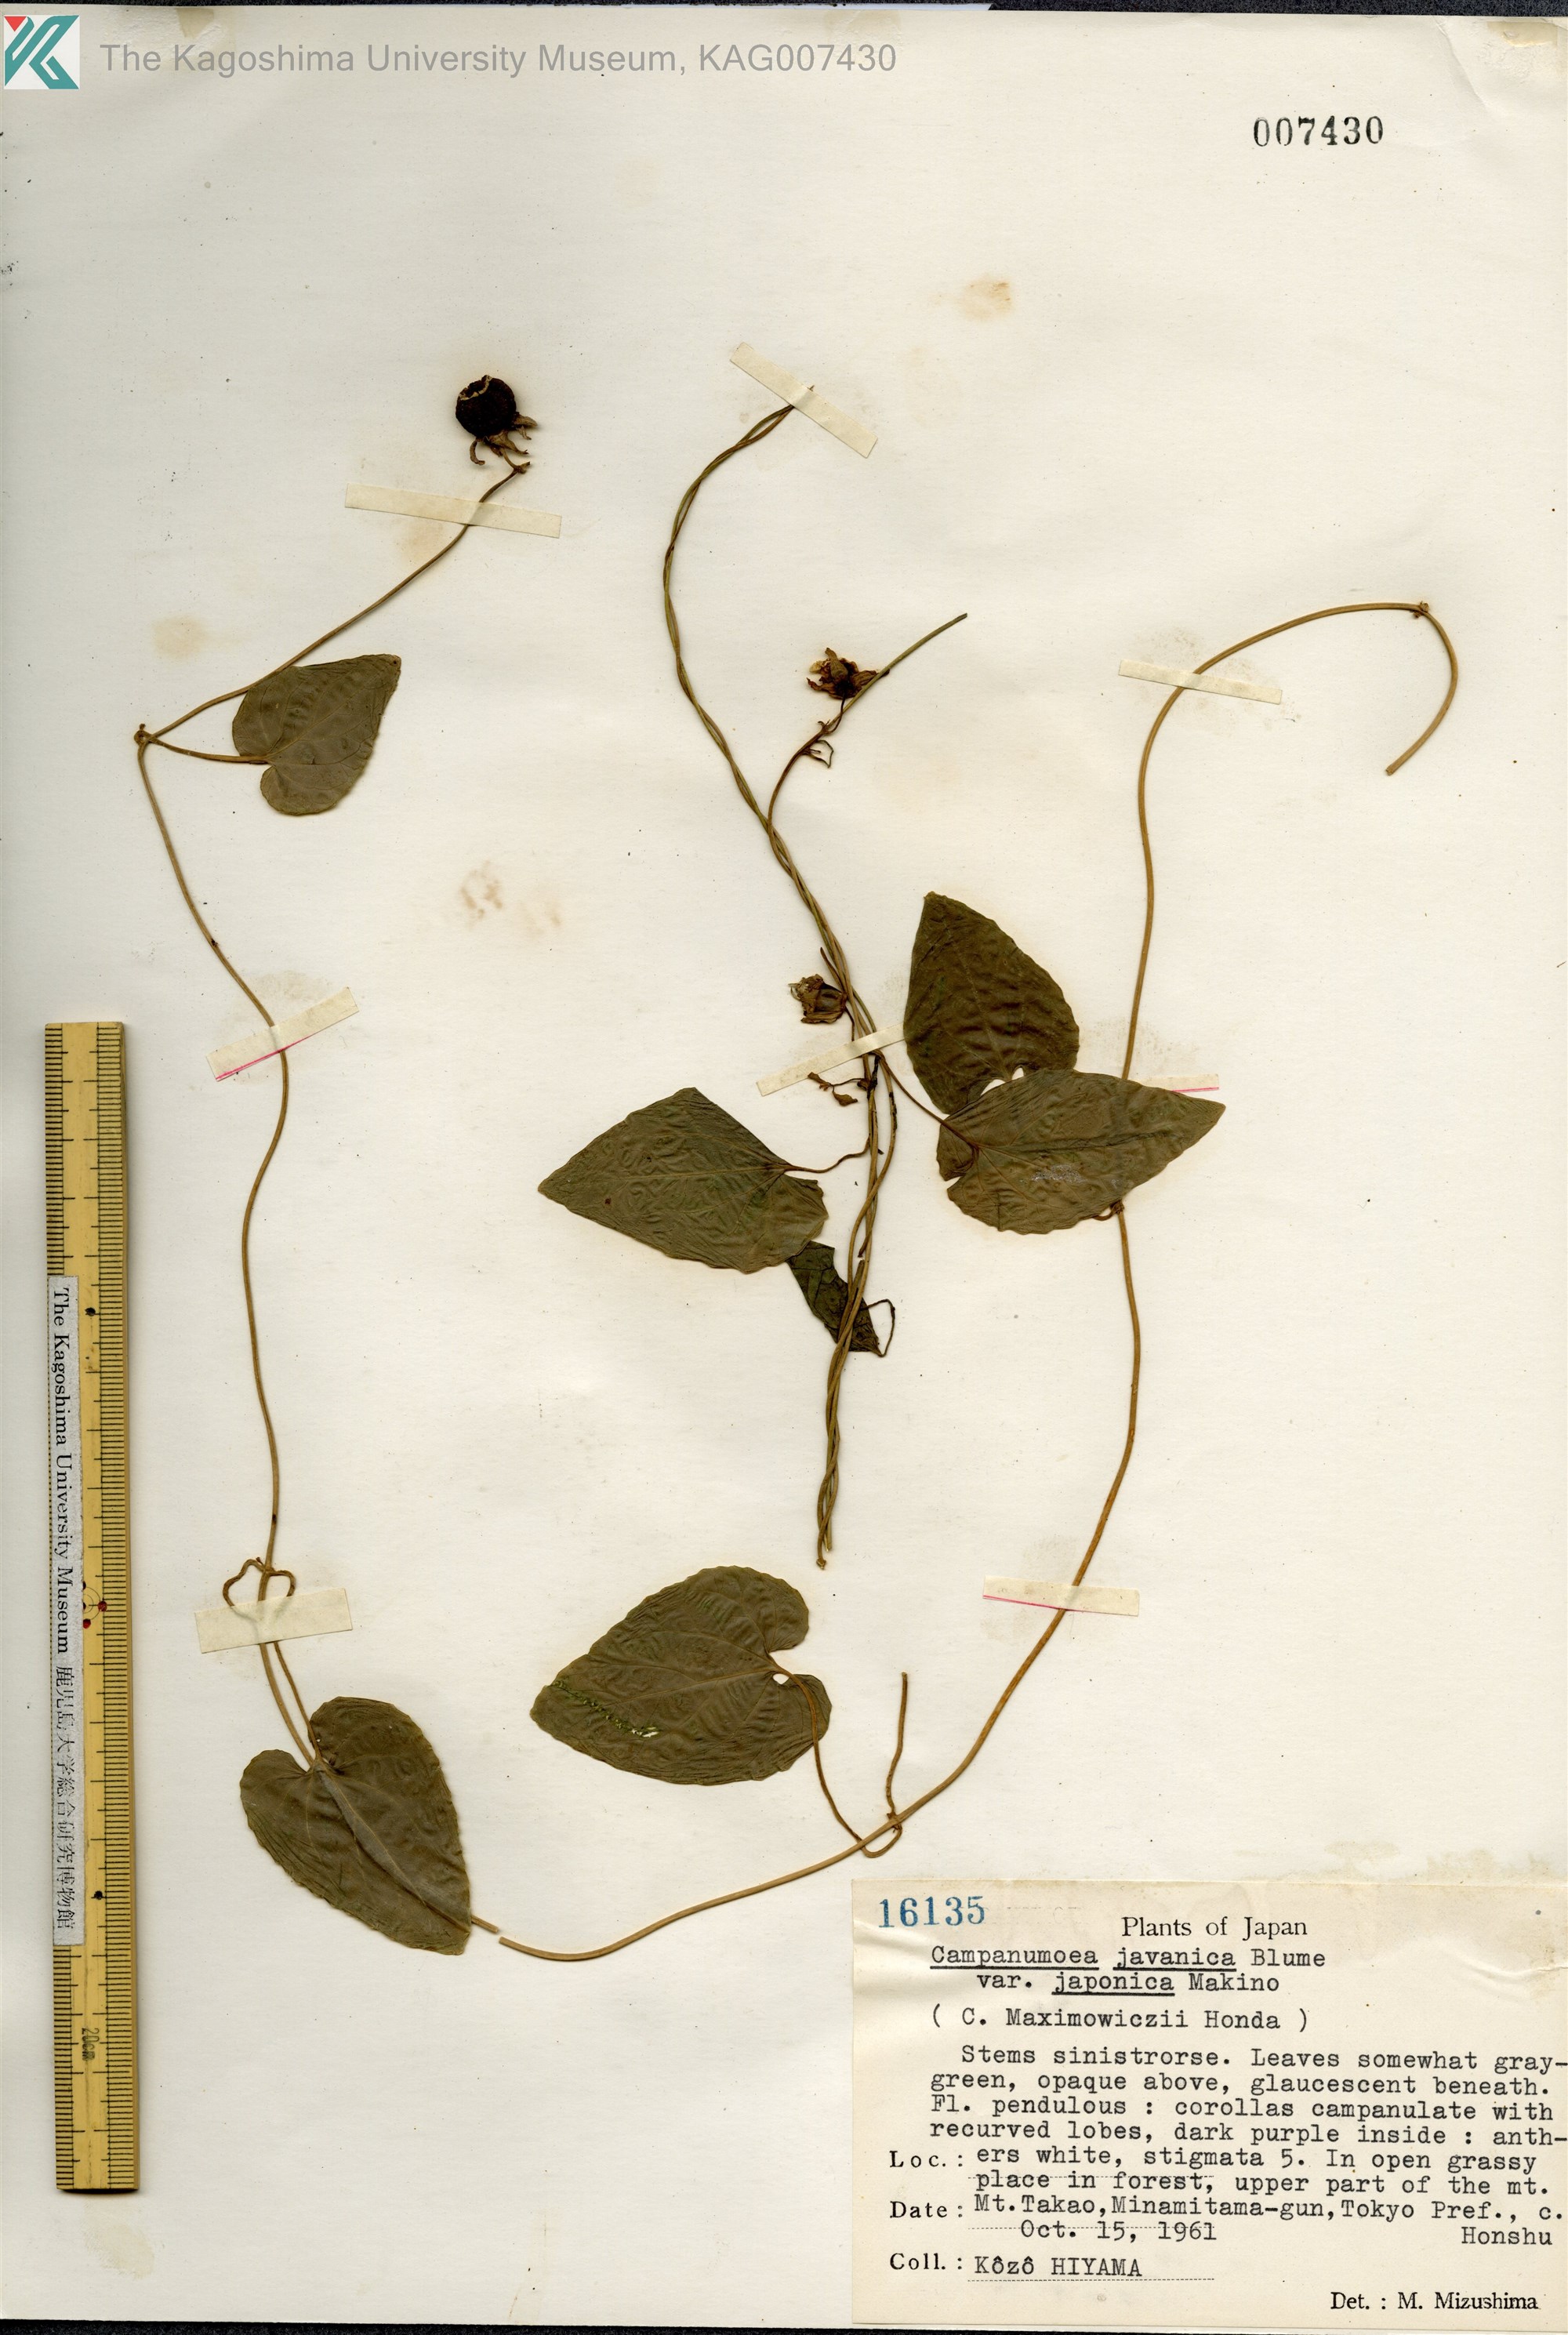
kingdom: Plantae
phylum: Tracheophyta
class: Magnoliopsida
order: Asterales
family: Campanulaceae
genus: Codonopsis
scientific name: Codonopsis javanica
